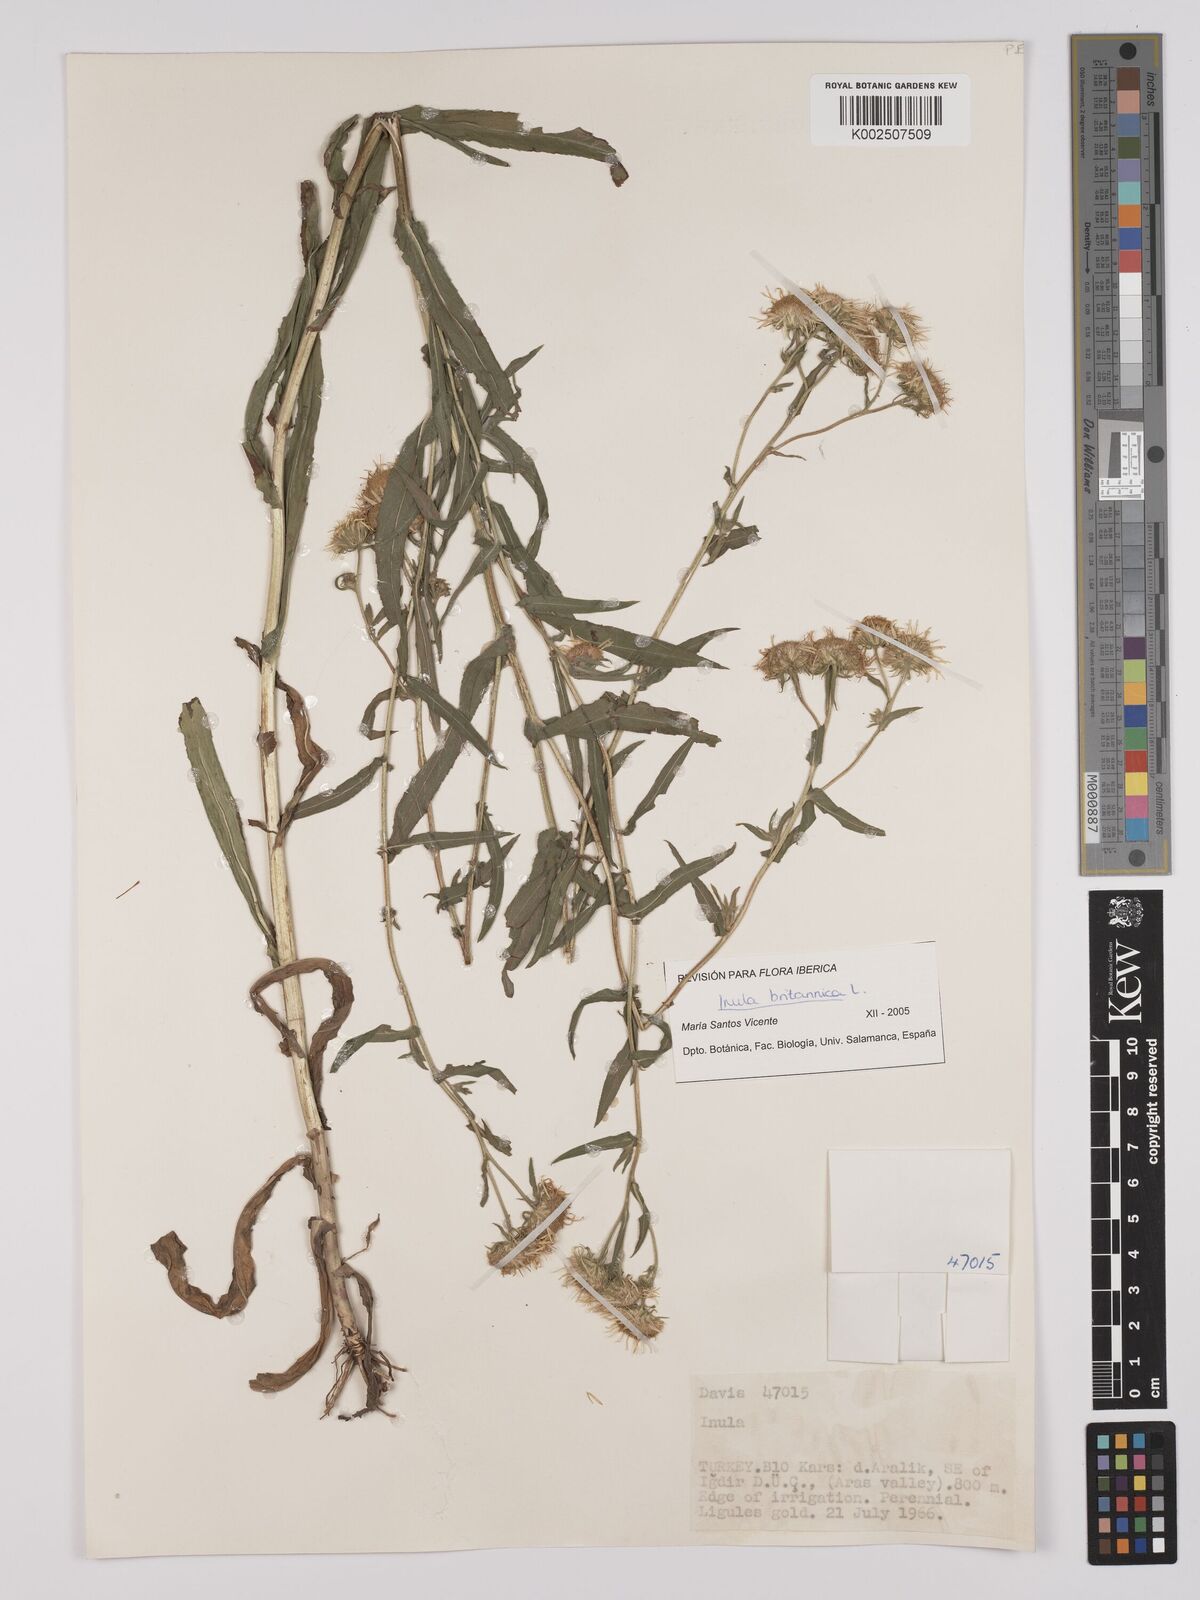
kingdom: Plantae
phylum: Tracheophyta
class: Magnoliopsida
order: Asterales
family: Asteraceae
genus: Pentanema
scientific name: Pentanema salicinum
